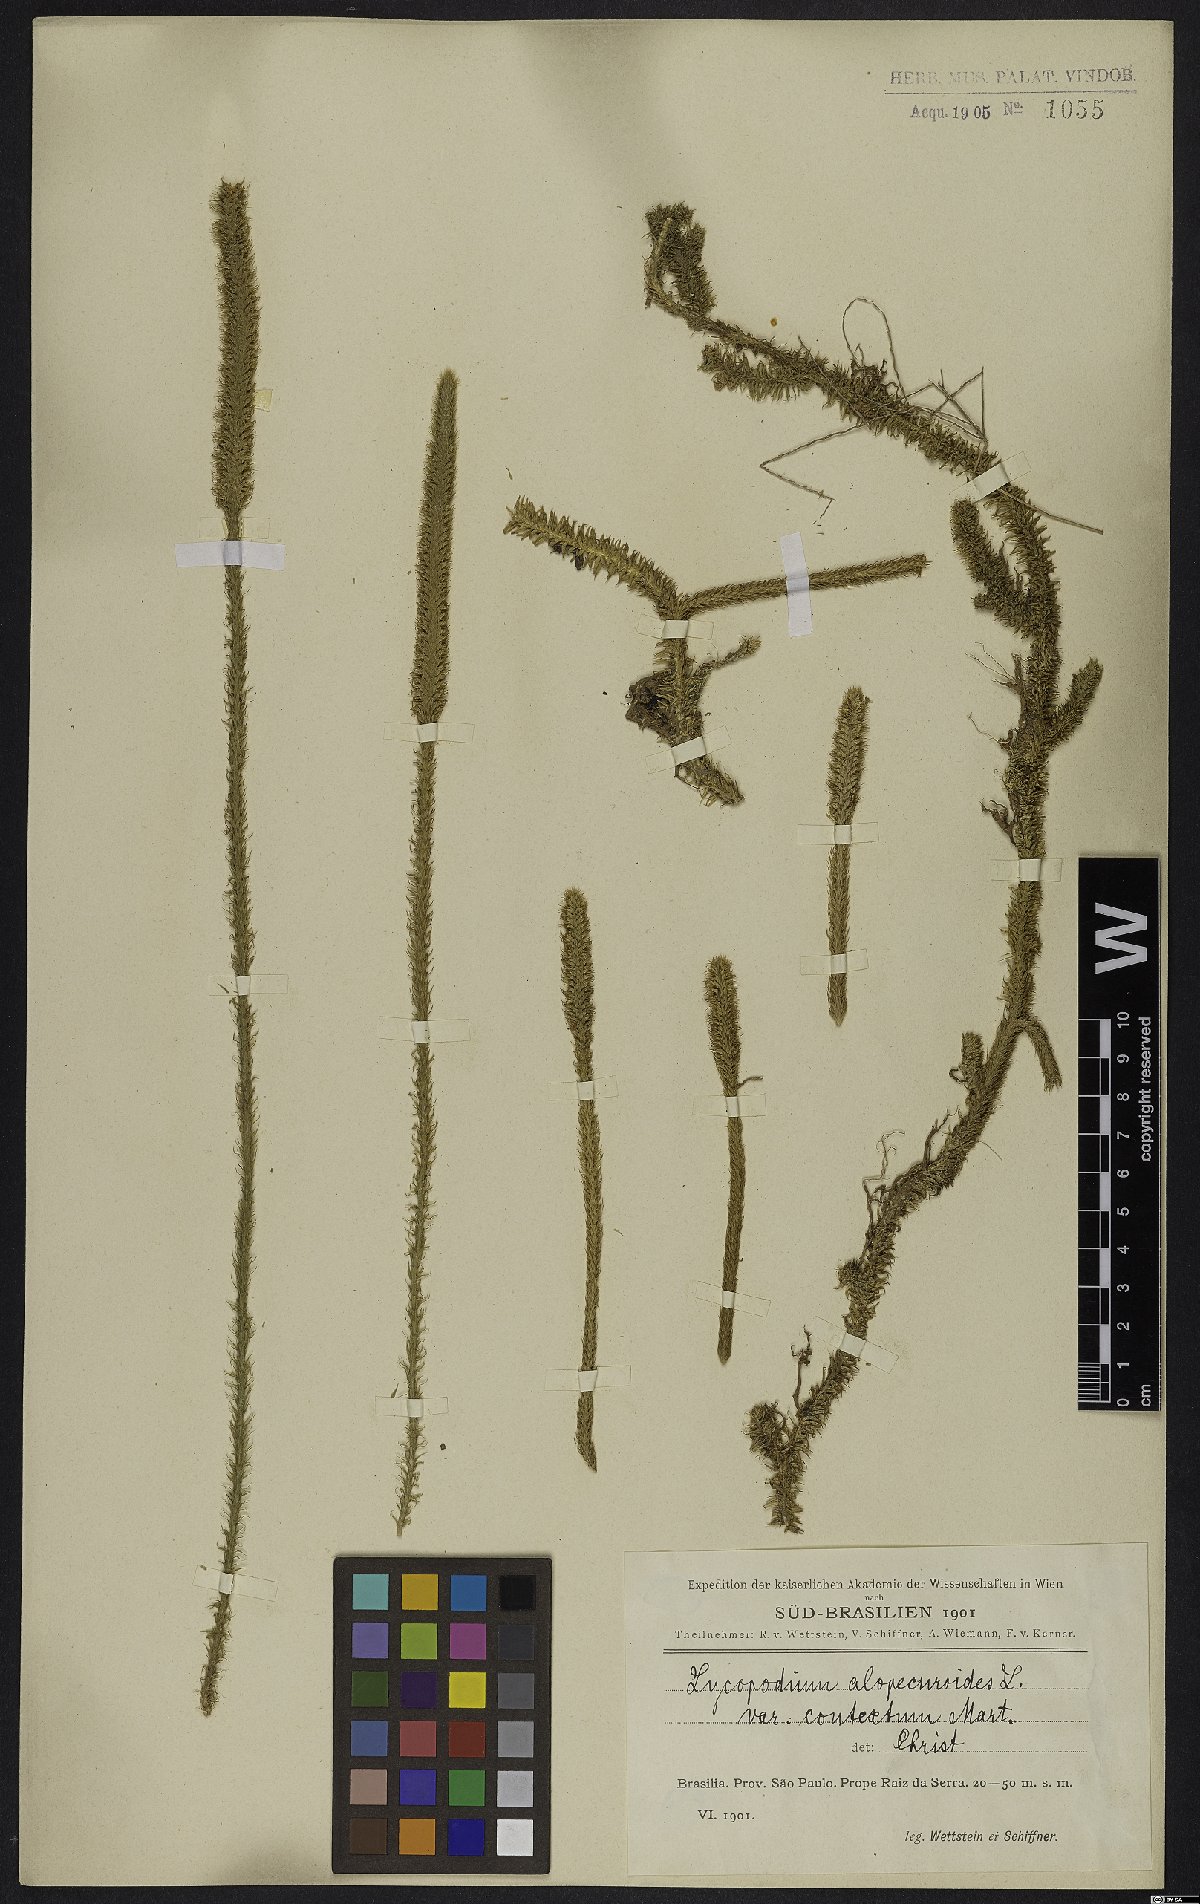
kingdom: Plantae
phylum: Tracheophyta
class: Lycopodiopsida
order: Lycopodiales
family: Lycopodiaceae
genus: Lycopodiella
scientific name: Lycopodiella alopecuroides
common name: Foxtail clubmoss
